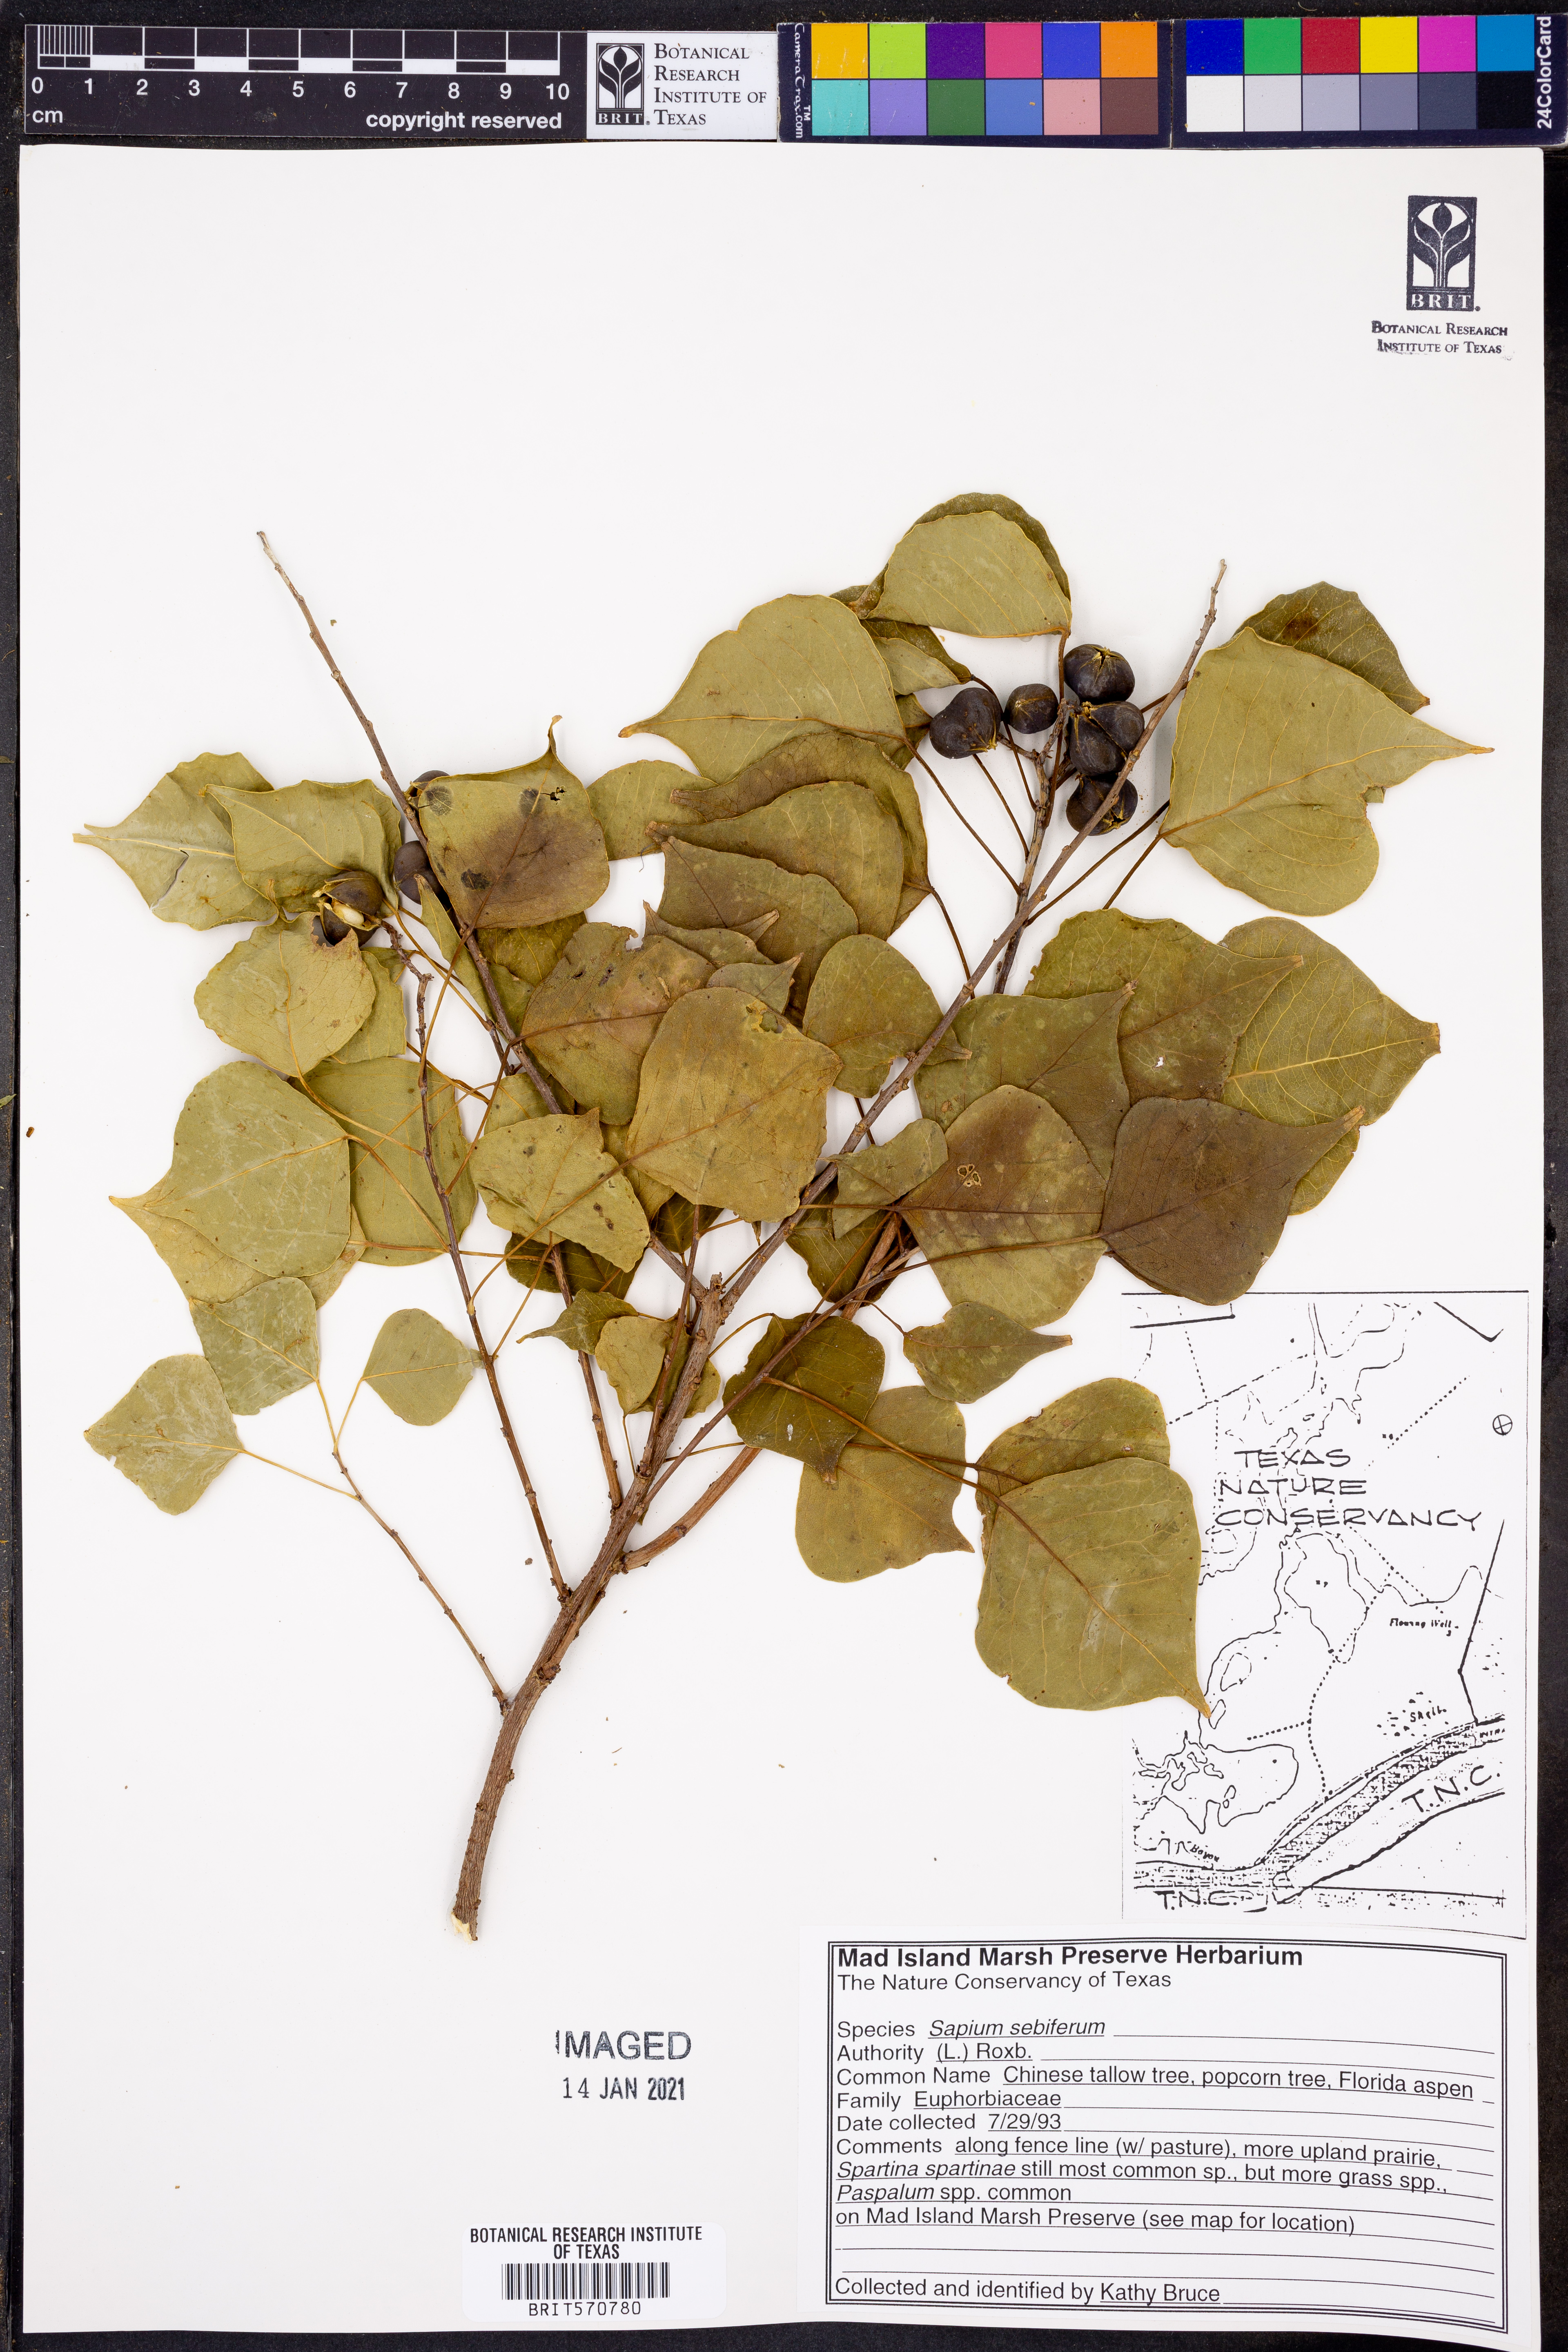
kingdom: Plantae
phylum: Tracheophyta
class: Magnoliopsida
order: Malpighiales
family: Euphorbiaceae
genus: Triadica
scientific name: Triadica sebifera
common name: Chinese tallow
